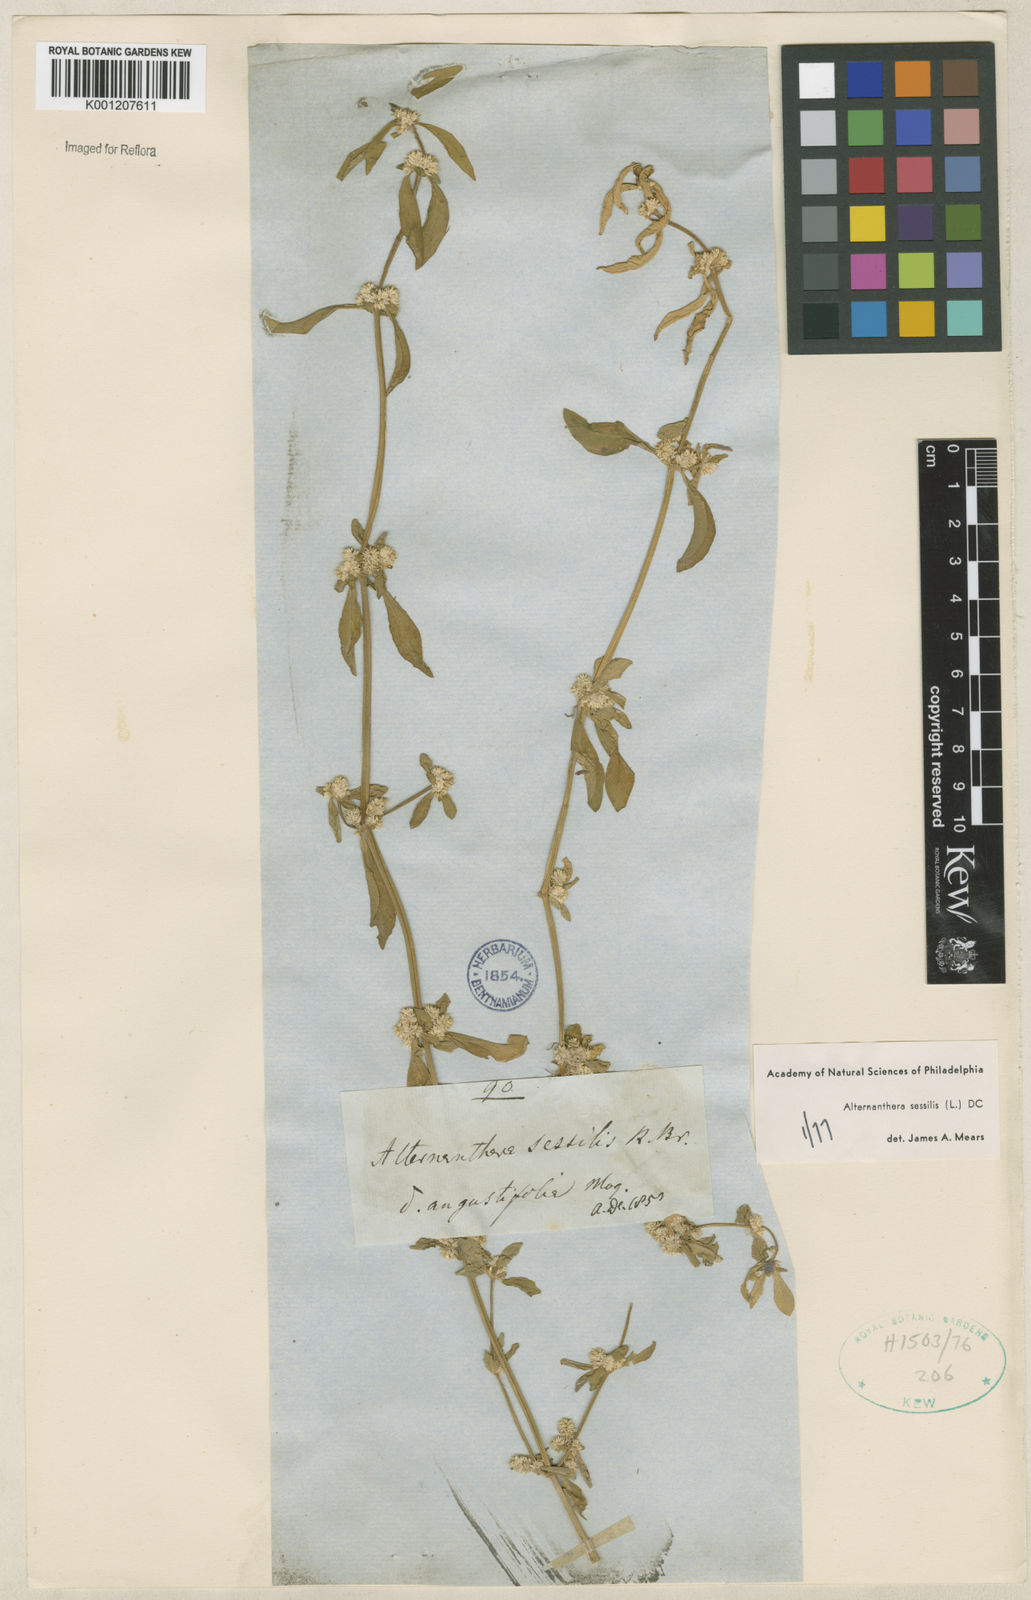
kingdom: Plantae
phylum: Tracheophyta
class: Magnoliopsida
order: Caryophyllales
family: Amaranthaceae
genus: Alternanthera
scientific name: Alternanthera
